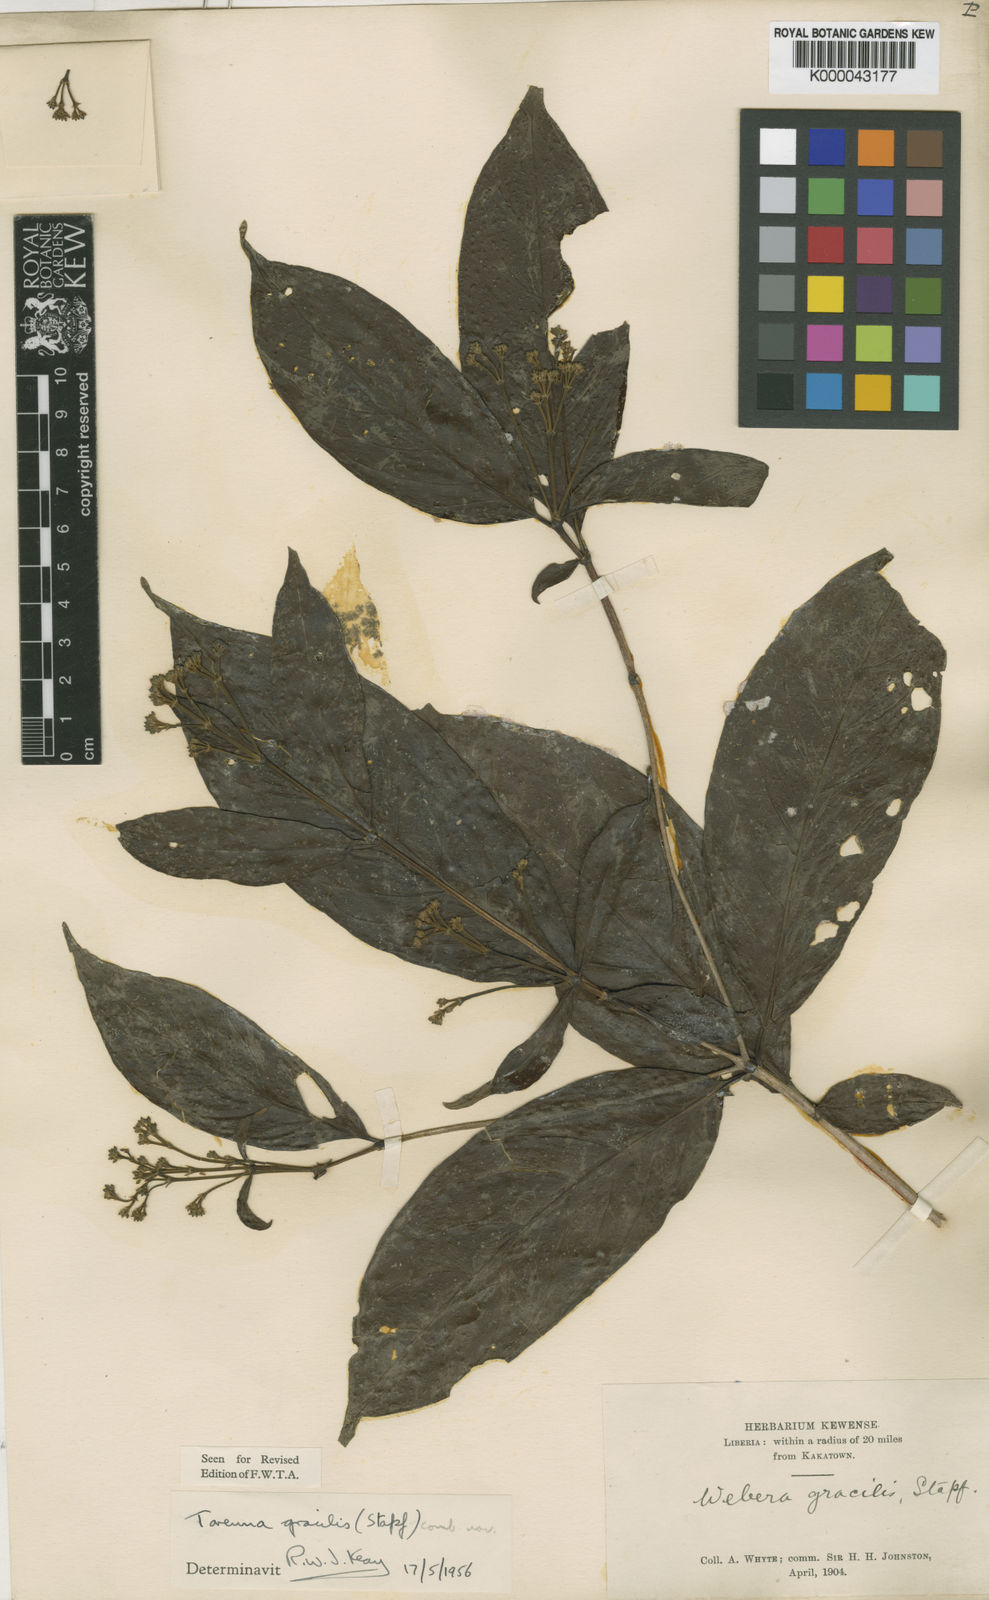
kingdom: Plantae
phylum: Tracheophyta
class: Magnoliopsida
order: Gentianales
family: Rubiaceae
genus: Tarenna
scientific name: Tarenna gracilis
